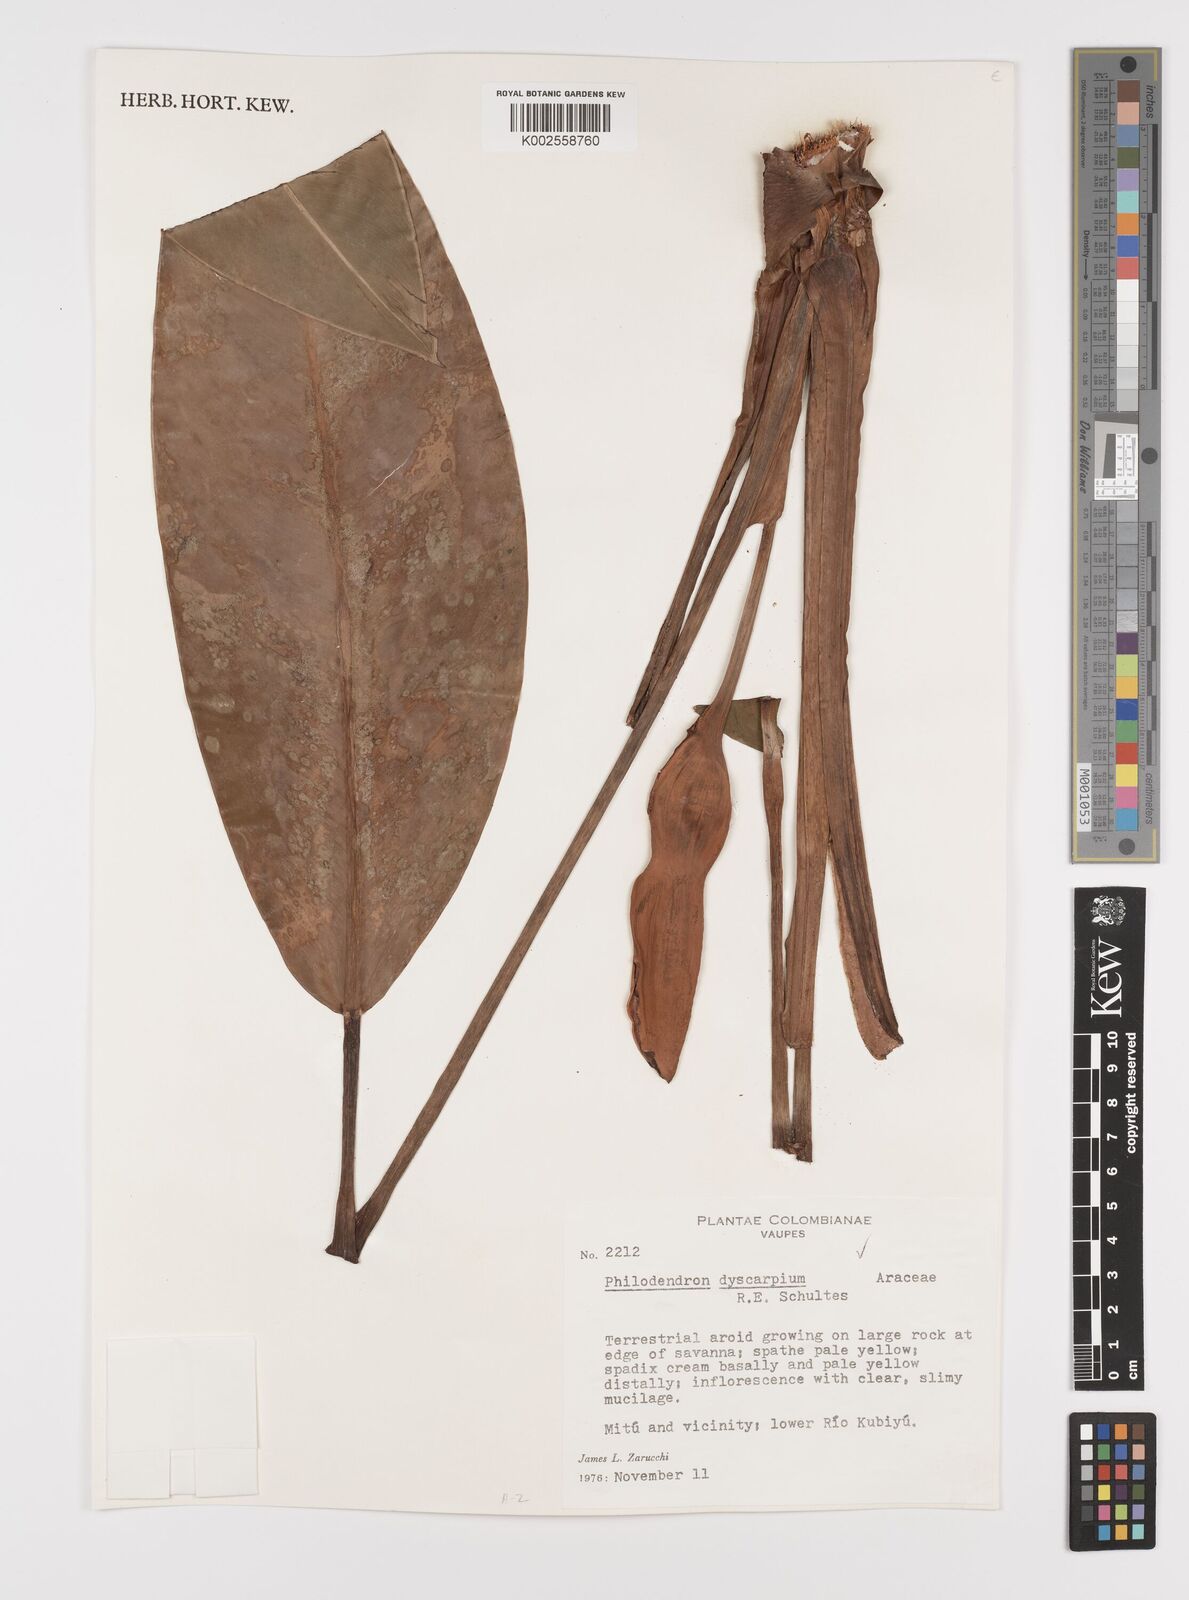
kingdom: Plantae
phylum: Tracheophyta
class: Liliopsida
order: Alismatales
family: Araceae
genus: Philodendron
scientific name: Philodendron dyscarpium
